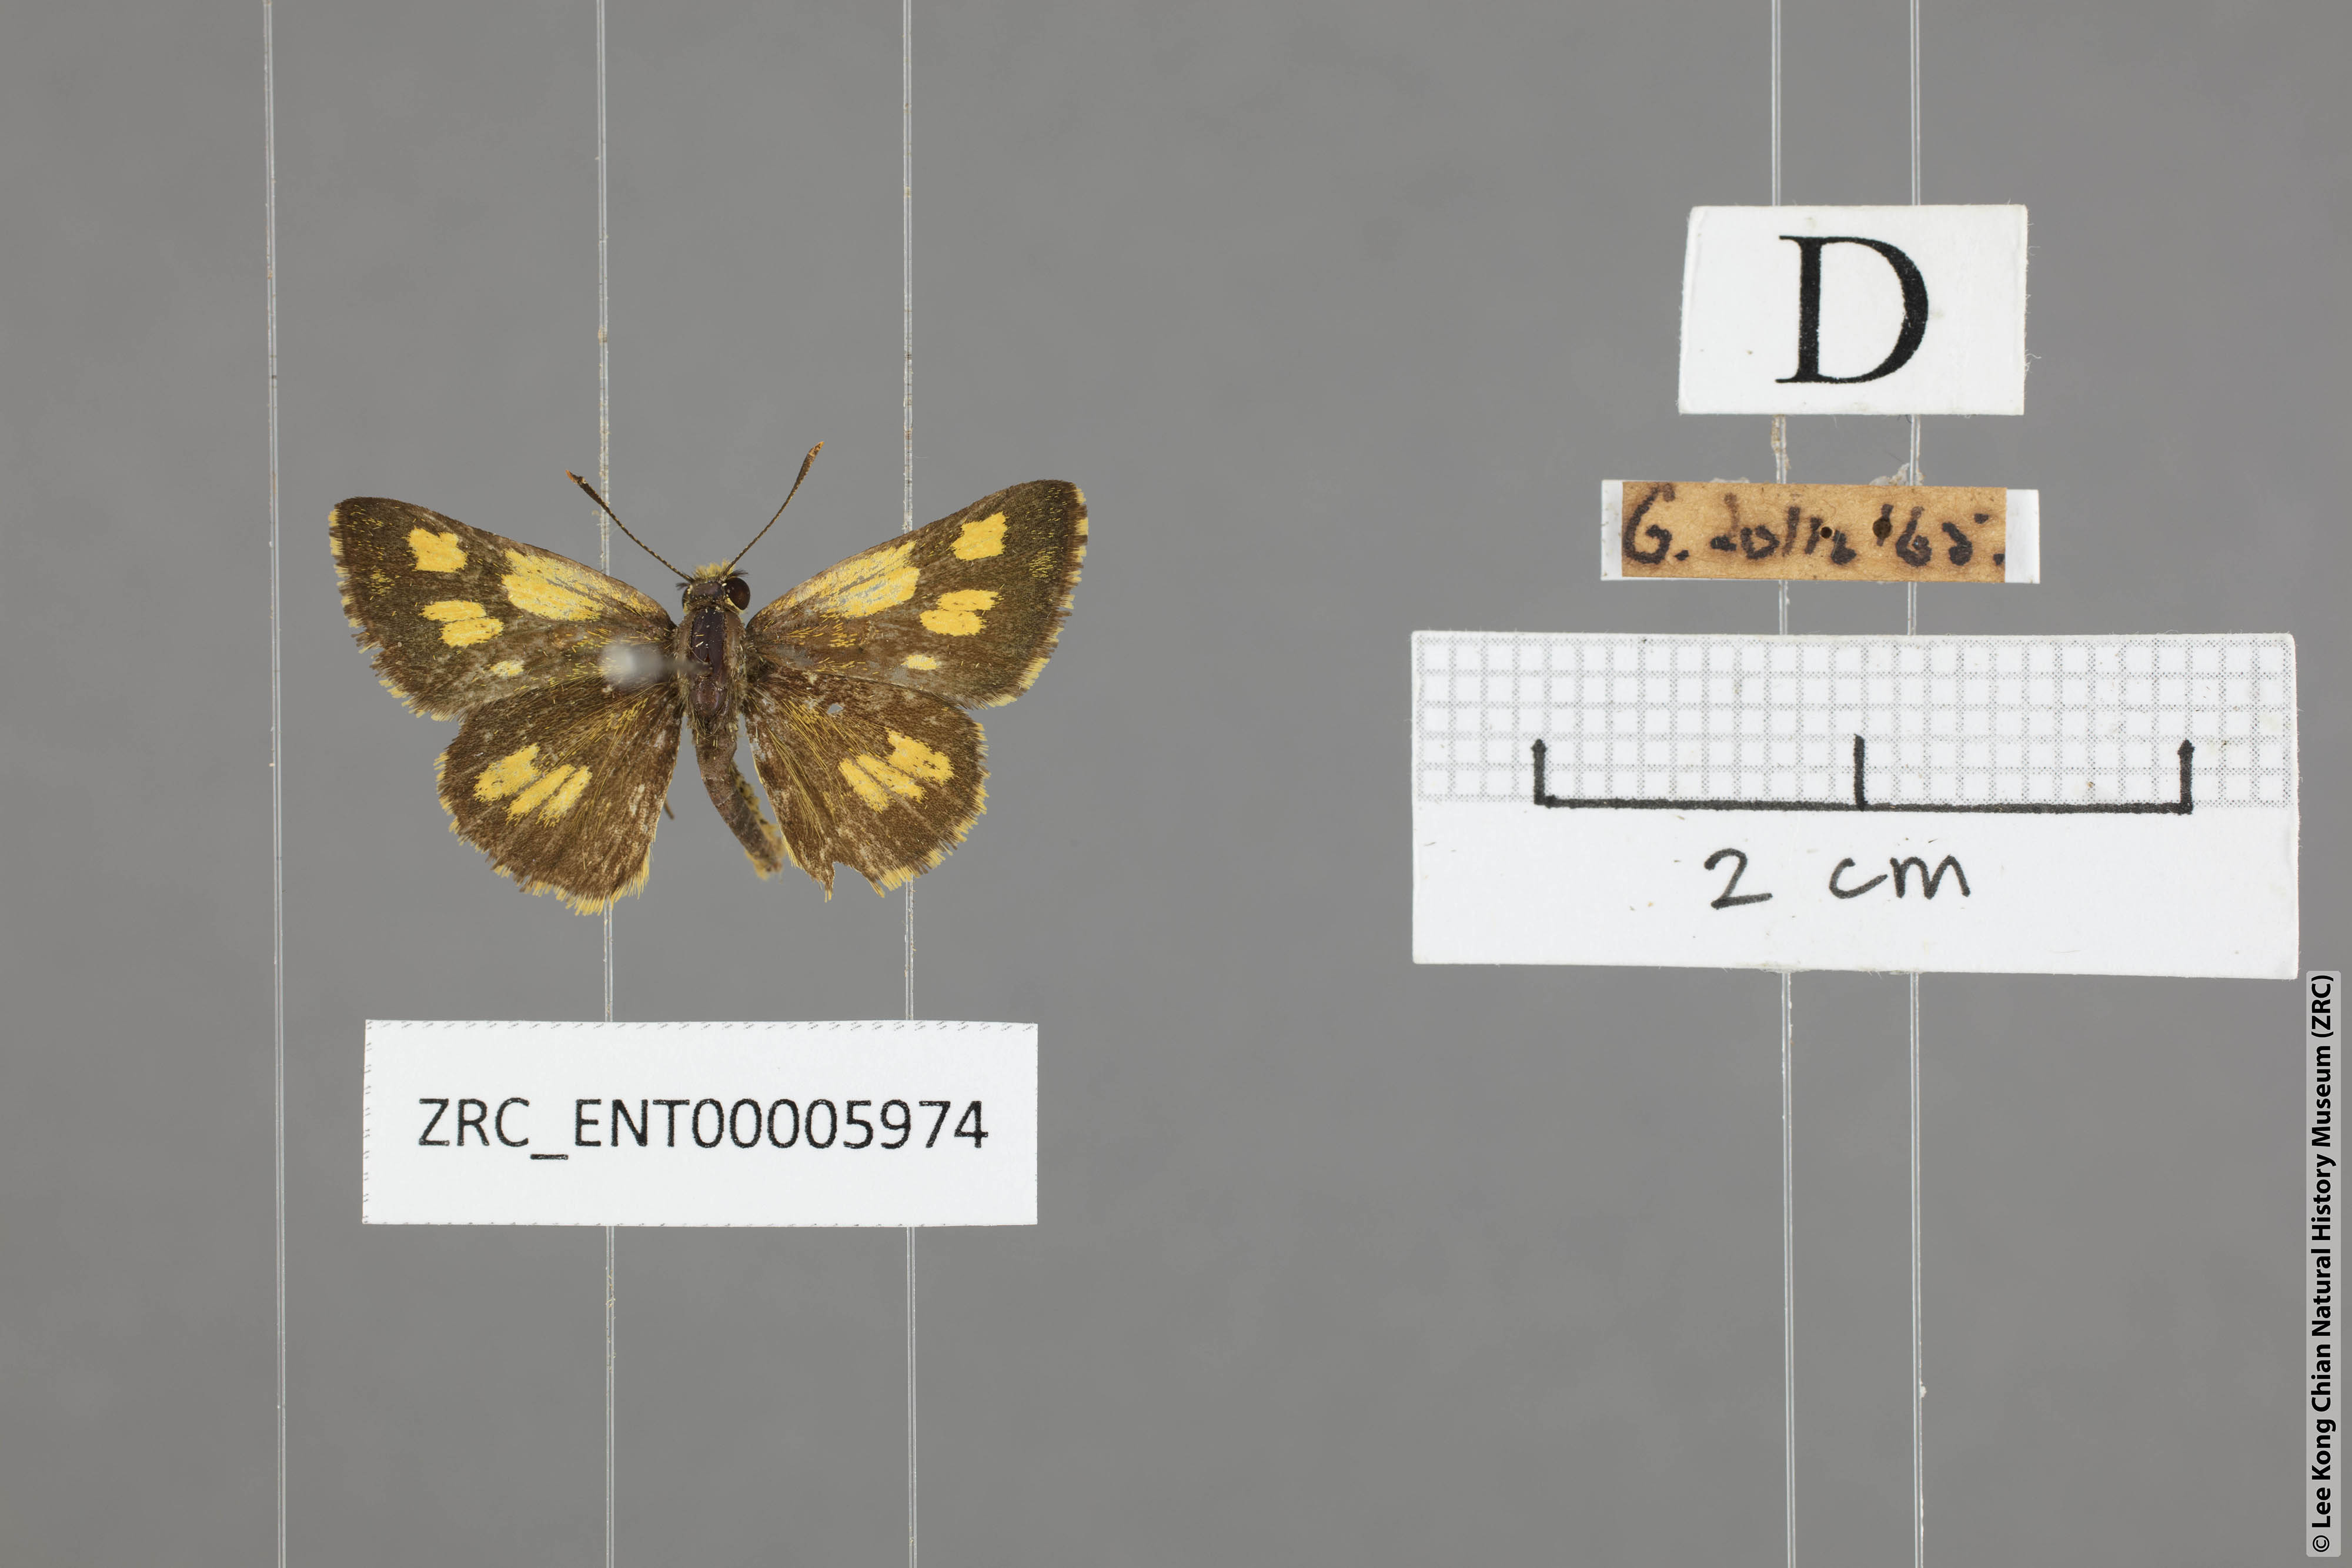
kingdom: Animalia
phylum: Arthropoda
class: Insecta
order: Lepidoptera
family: Hesperiidae
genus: Ampittia
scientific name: Ampittia dioscorides
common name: Common bush hopper
